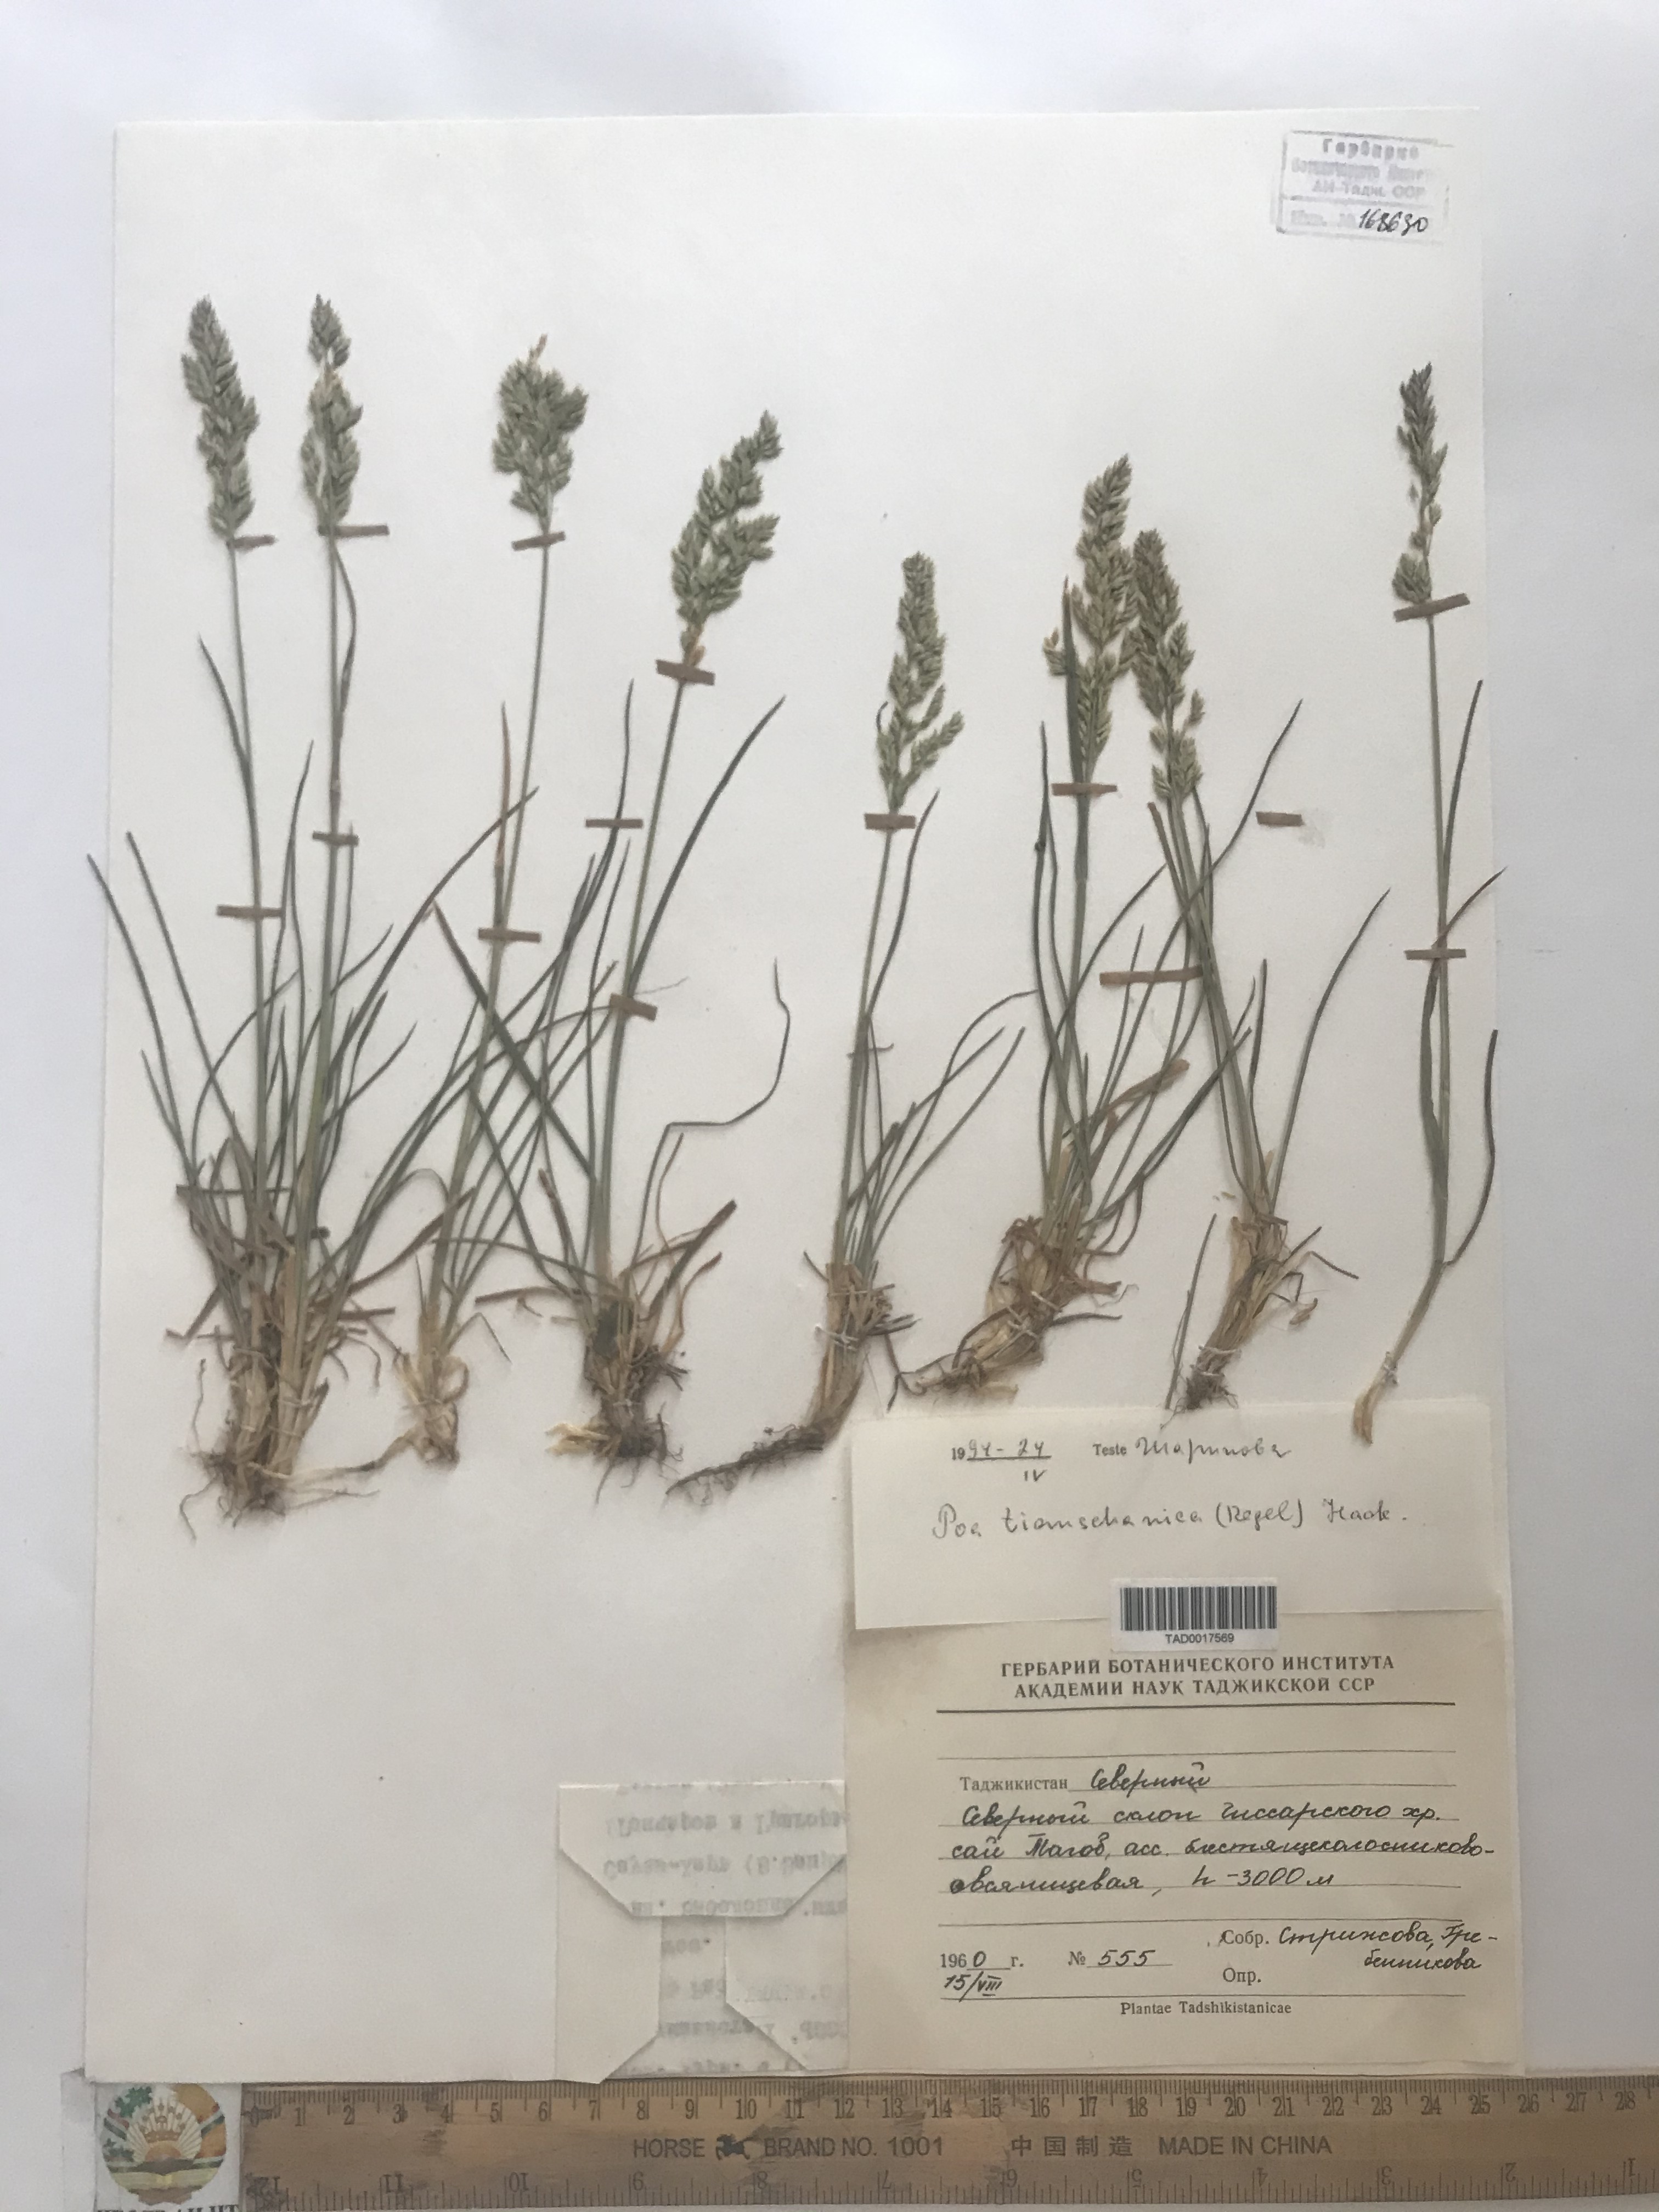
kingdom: Plantae
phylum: Tracheophyta
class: Liliopsida
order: Poales
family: Poaceae
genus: Poa
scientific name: Poa tianschanica
